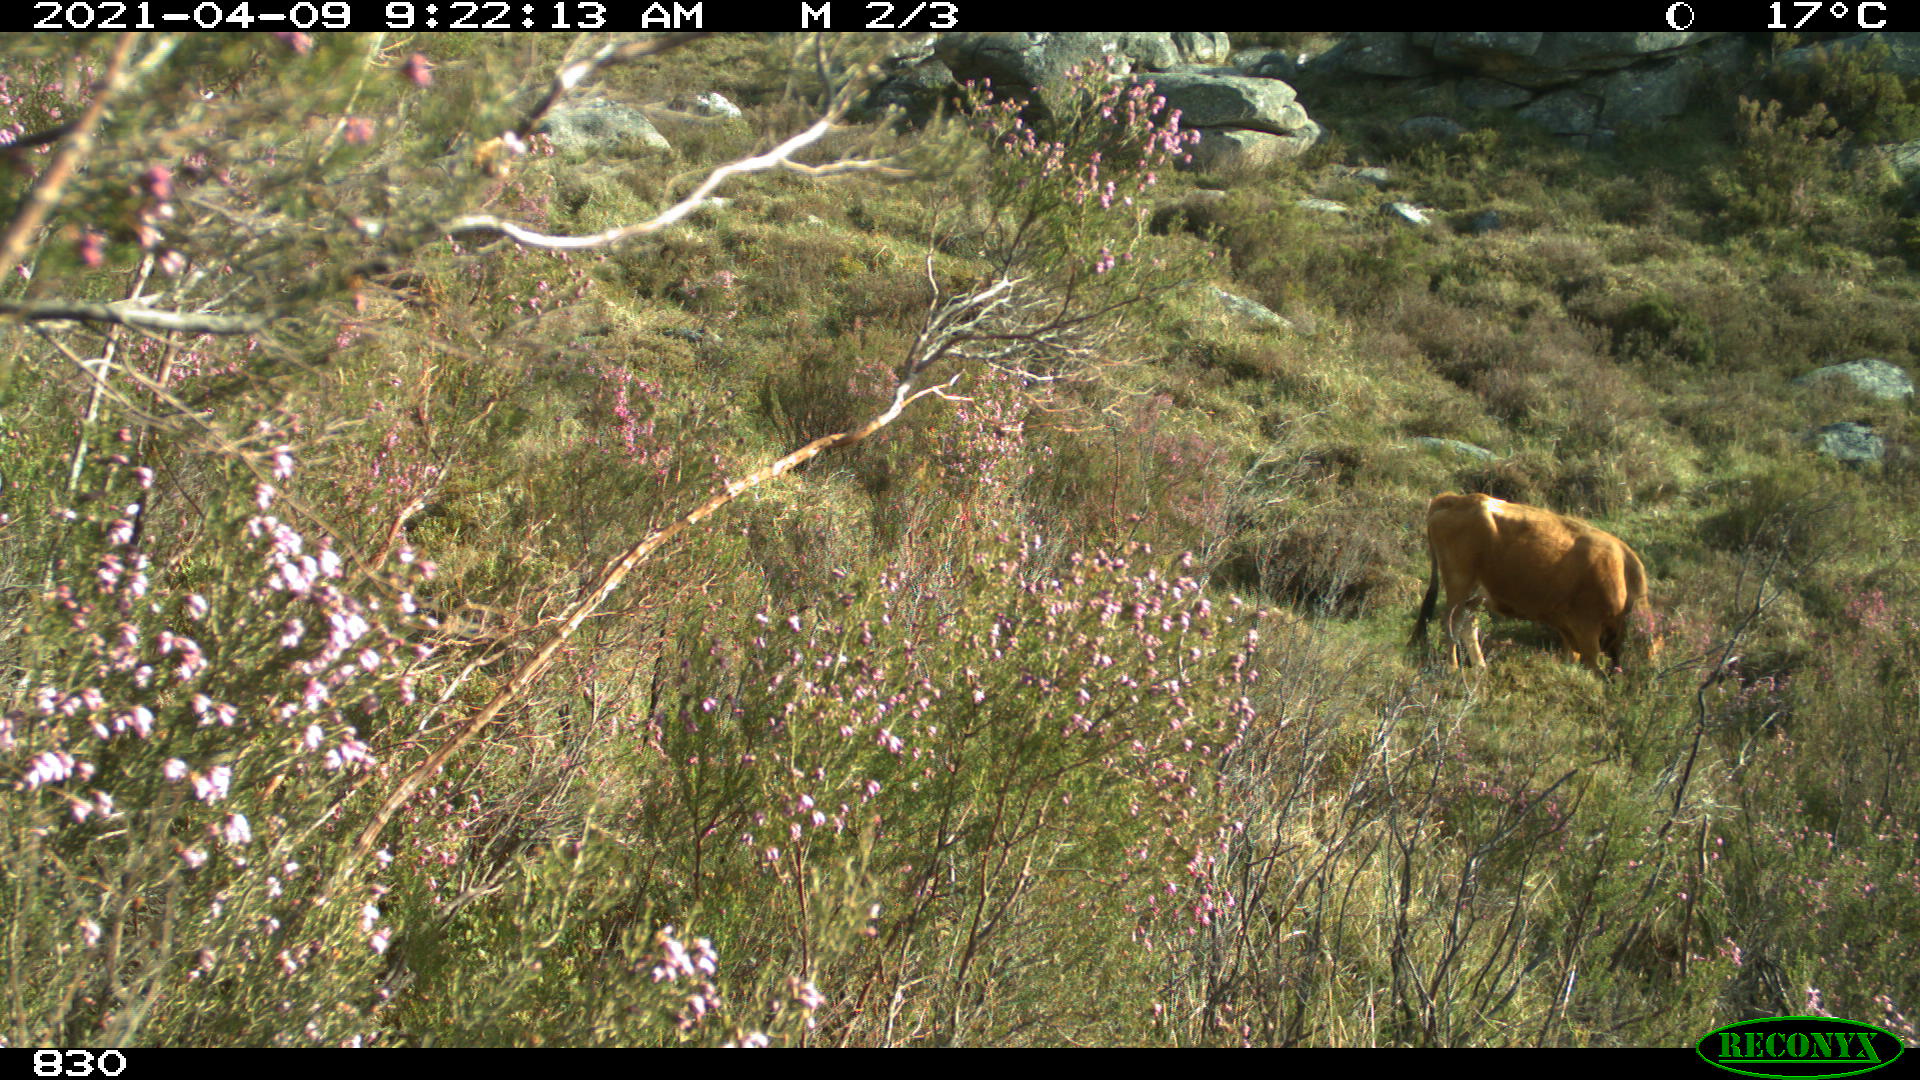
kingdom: Animalia
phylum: Chordata
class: Mammalia
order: Artiodactyla
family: Bovidae
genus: Bos
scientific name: Bos taurus
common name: Domesticated cattle
